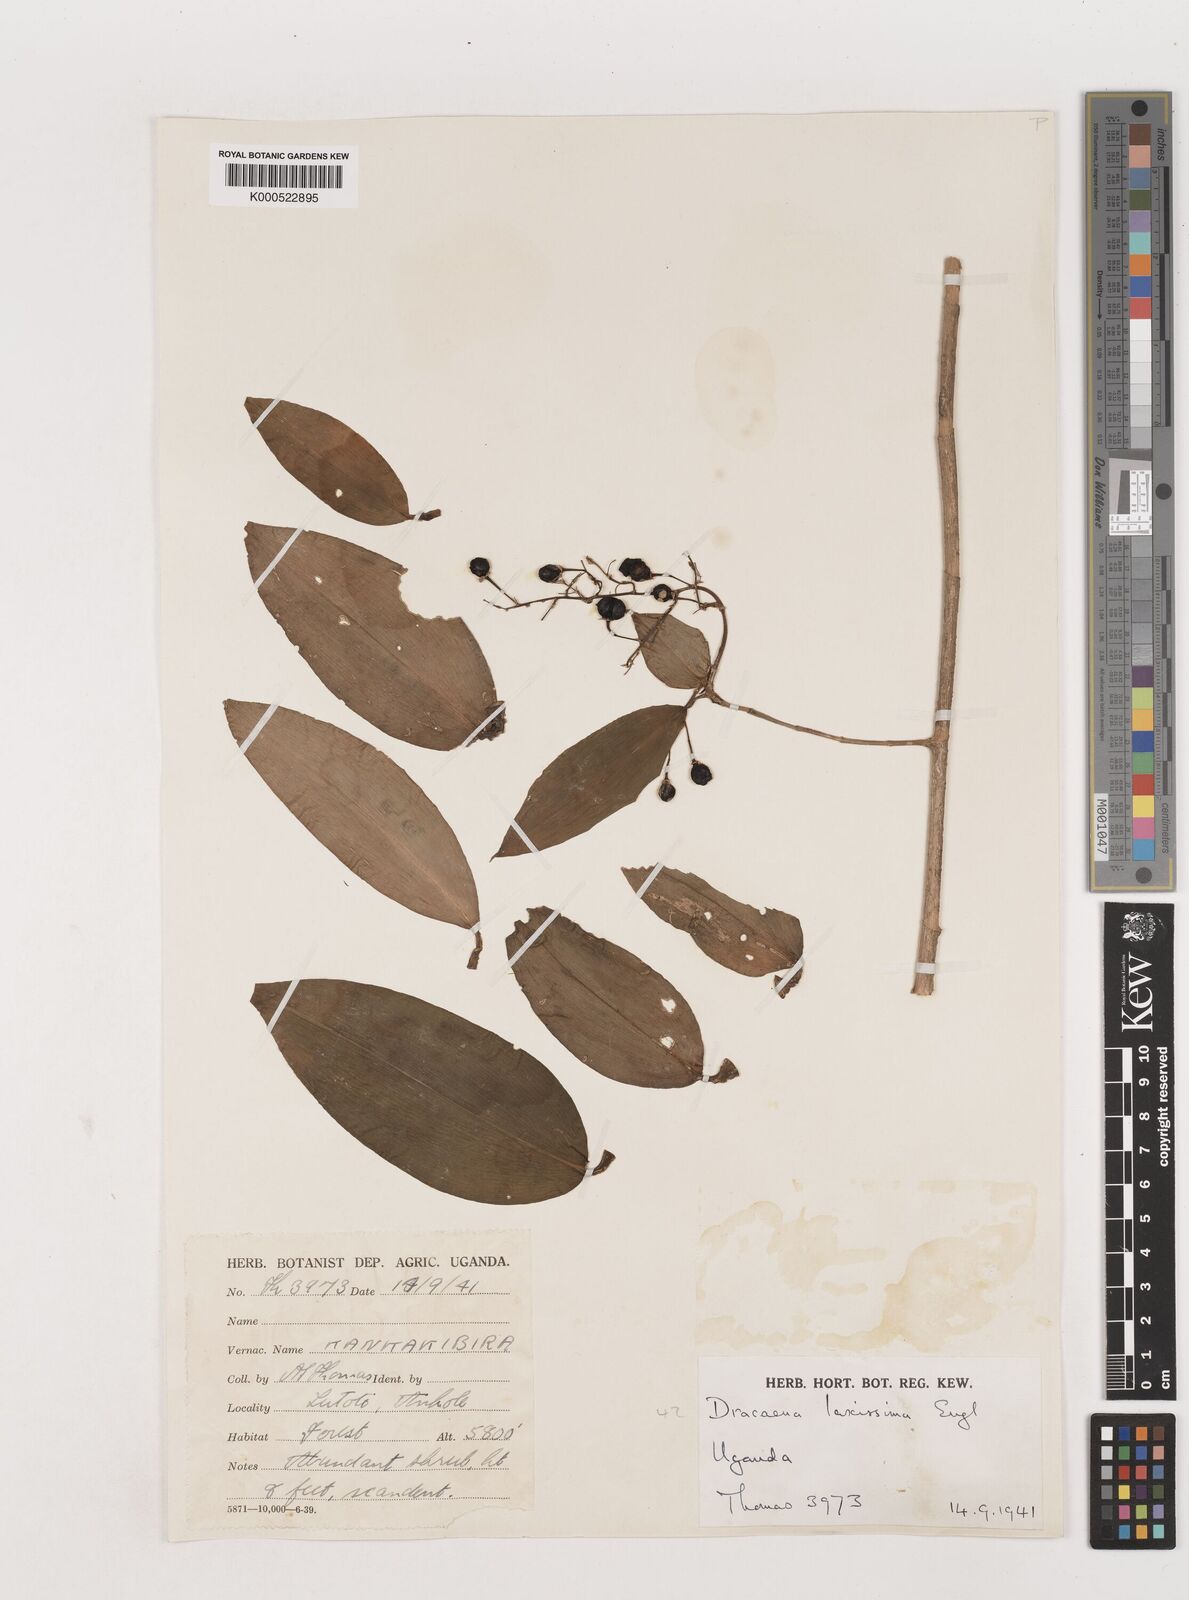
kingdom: Plantae
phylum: Tracheophyta
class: Liliopsida
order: Asparagales
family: Asparagaceae
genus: Dracaena
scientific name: Dracaena laxissima
